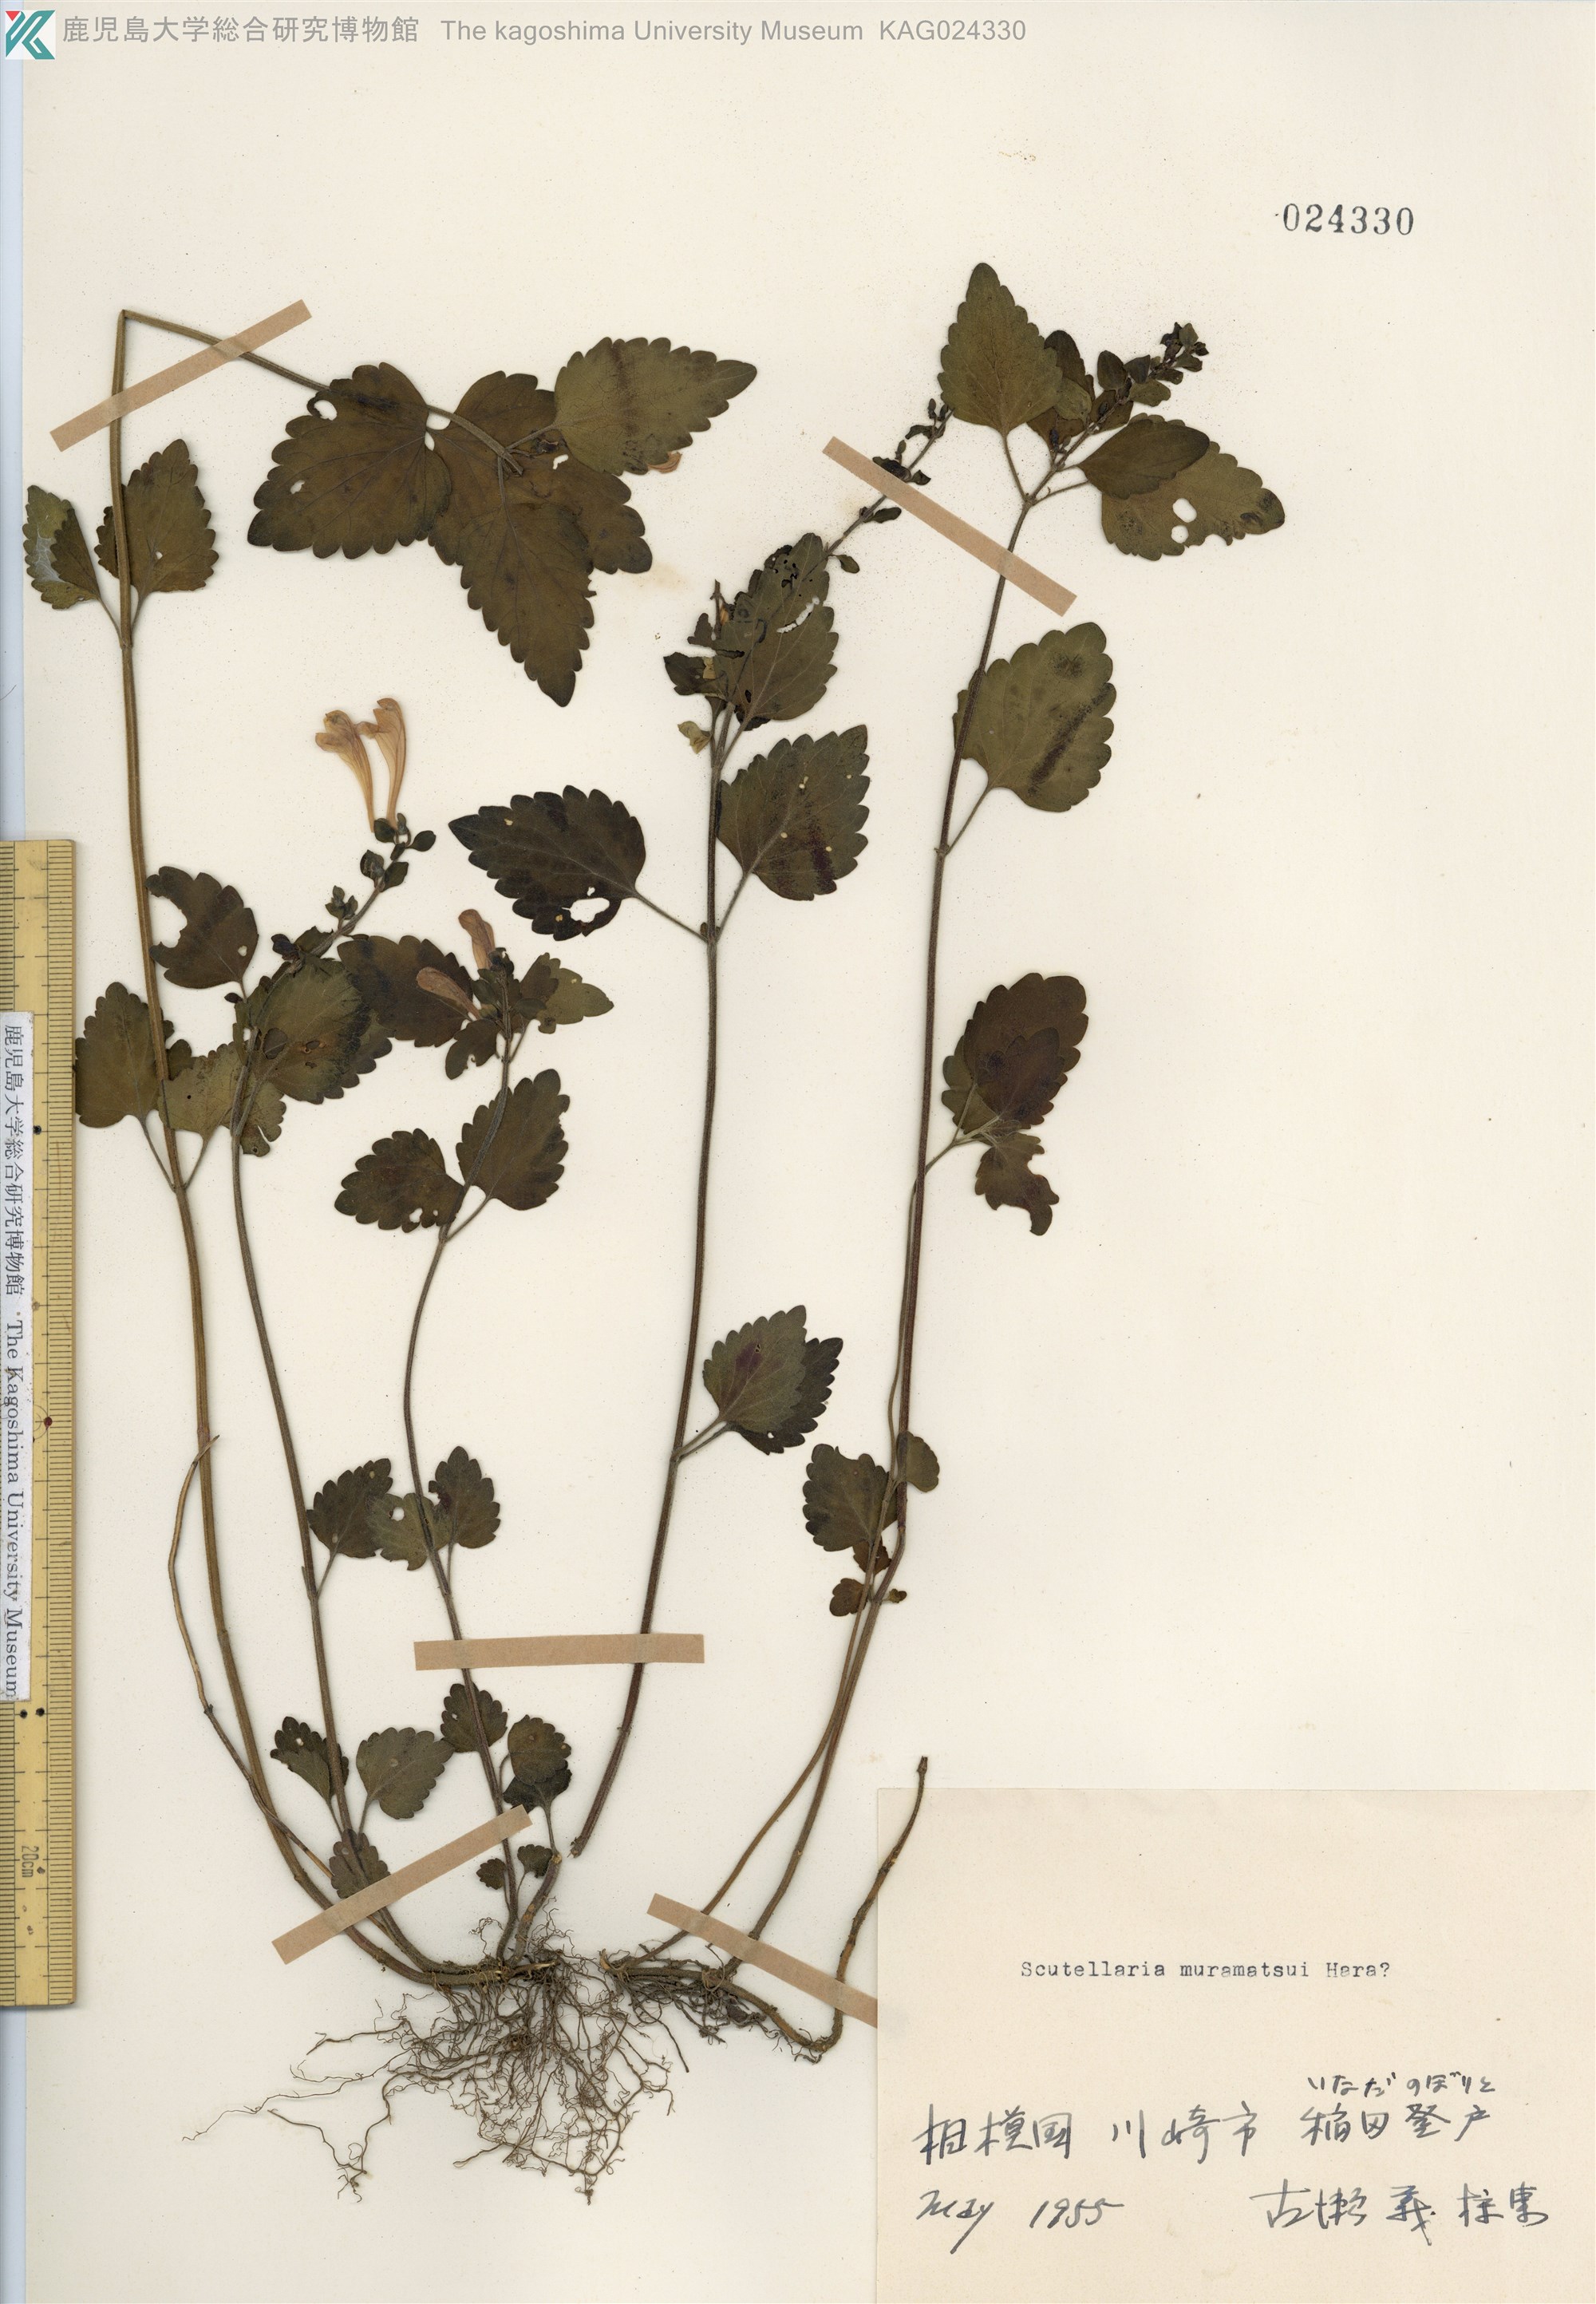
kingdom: Plantae
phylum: Tracheophyta
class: Magnoliopsida
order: Lamiales
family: Lamiaceae
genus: Scutellaria
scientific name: Scutellaria muramatsui
